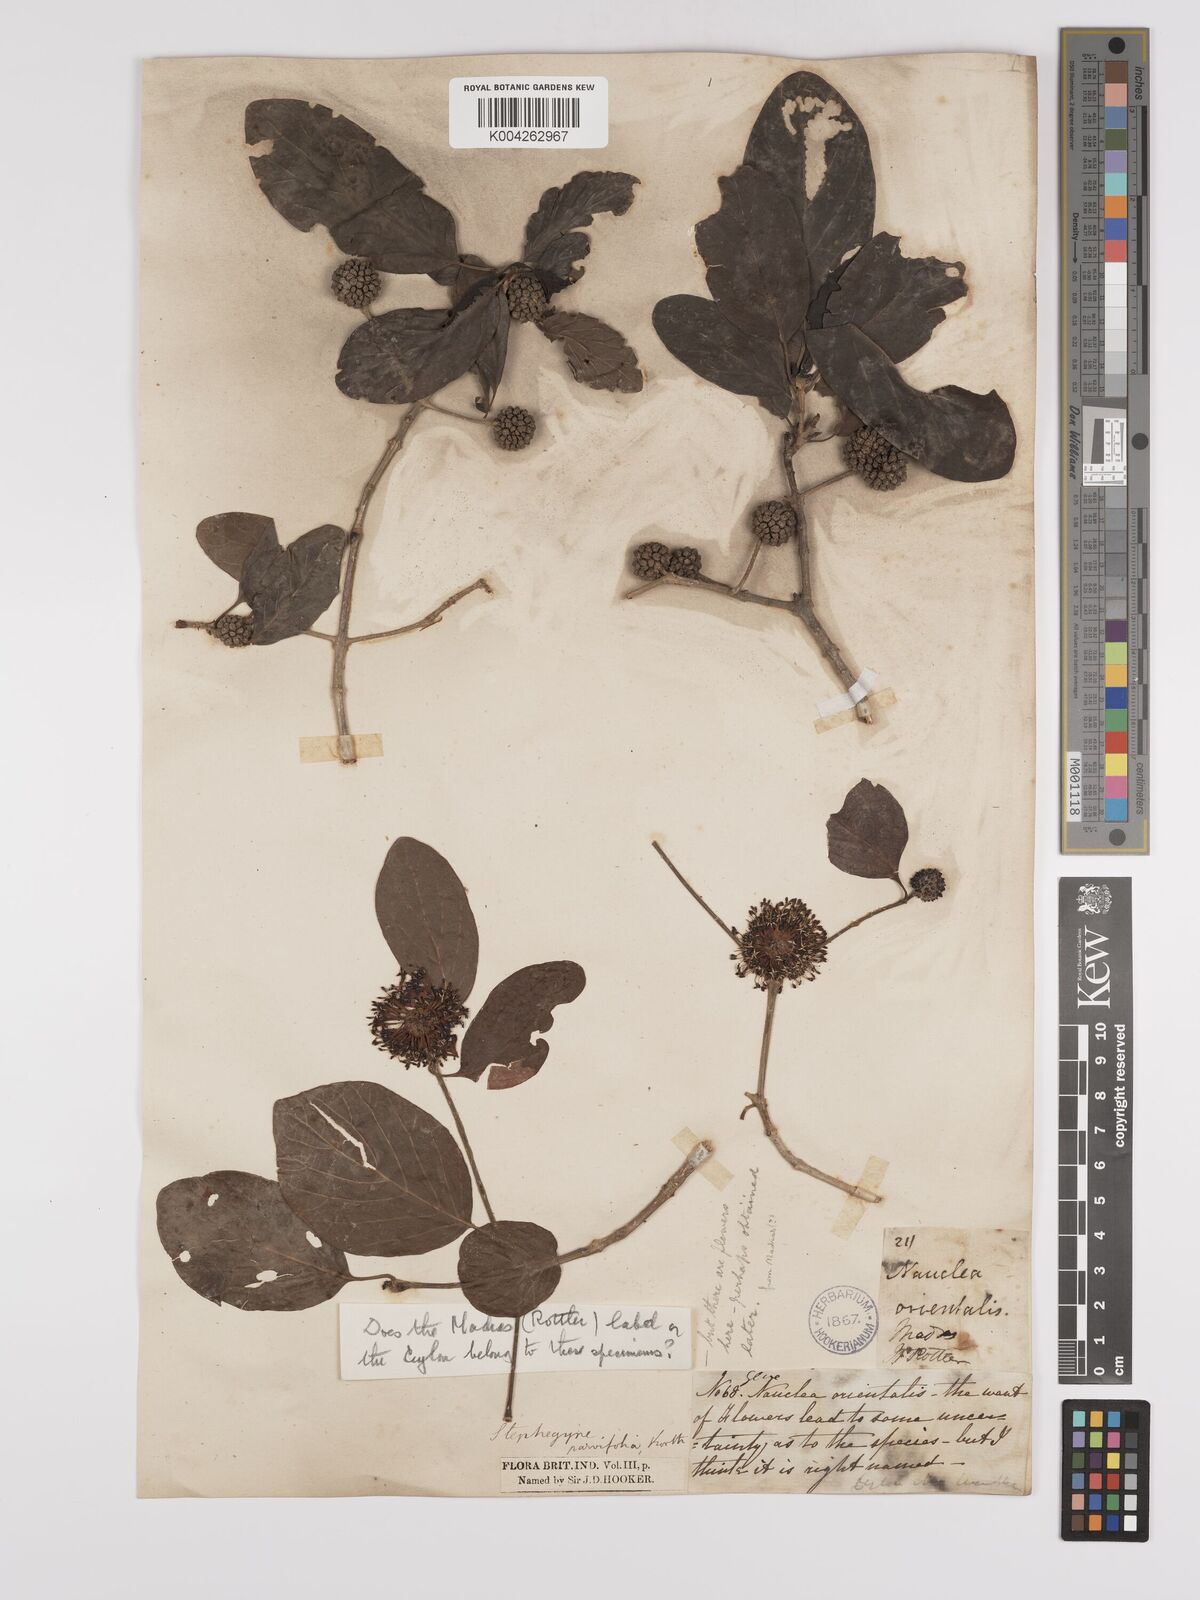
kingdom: Plantae
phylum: Tracheophyta
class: Magnoliopsida
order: Gentianales
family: Rubiaceae
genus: Mitragyna
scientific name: Mitragyna parvifolia
